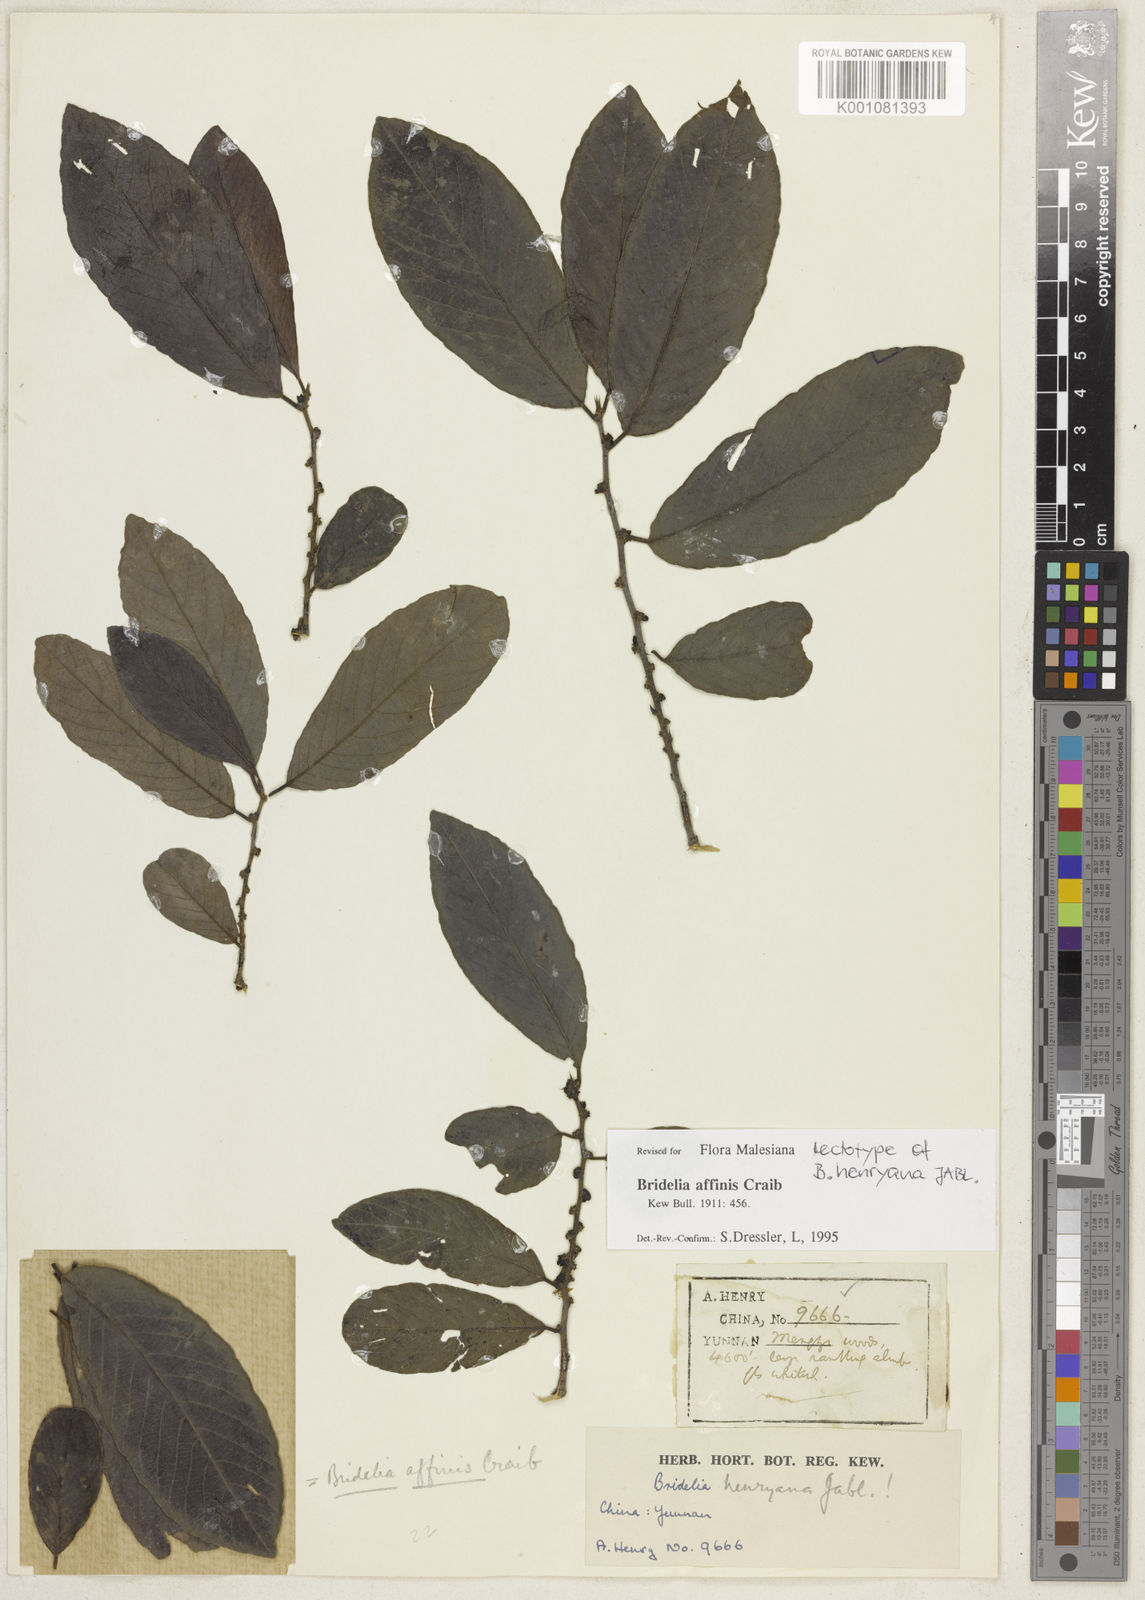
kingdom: Plantae
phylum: Tracheophyta
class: Magnoliopsida
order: Malpighiales
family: Phyllanthaceae
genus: Bridelia
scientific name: Bridelia affinis
